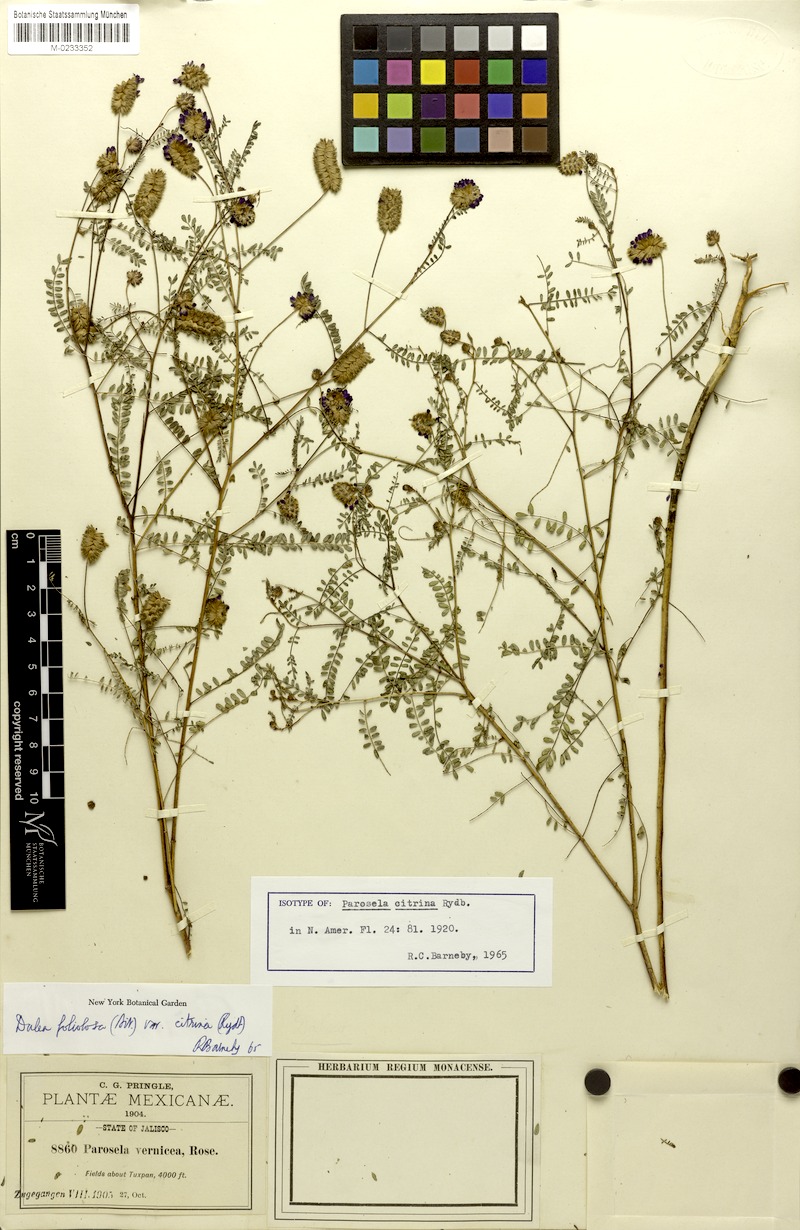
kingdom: Plantae
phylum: Tracheophyta
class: Magnoliopsida
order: Fabales
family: Fabaceae
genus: Dalea
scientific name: Dalea foliolosa
